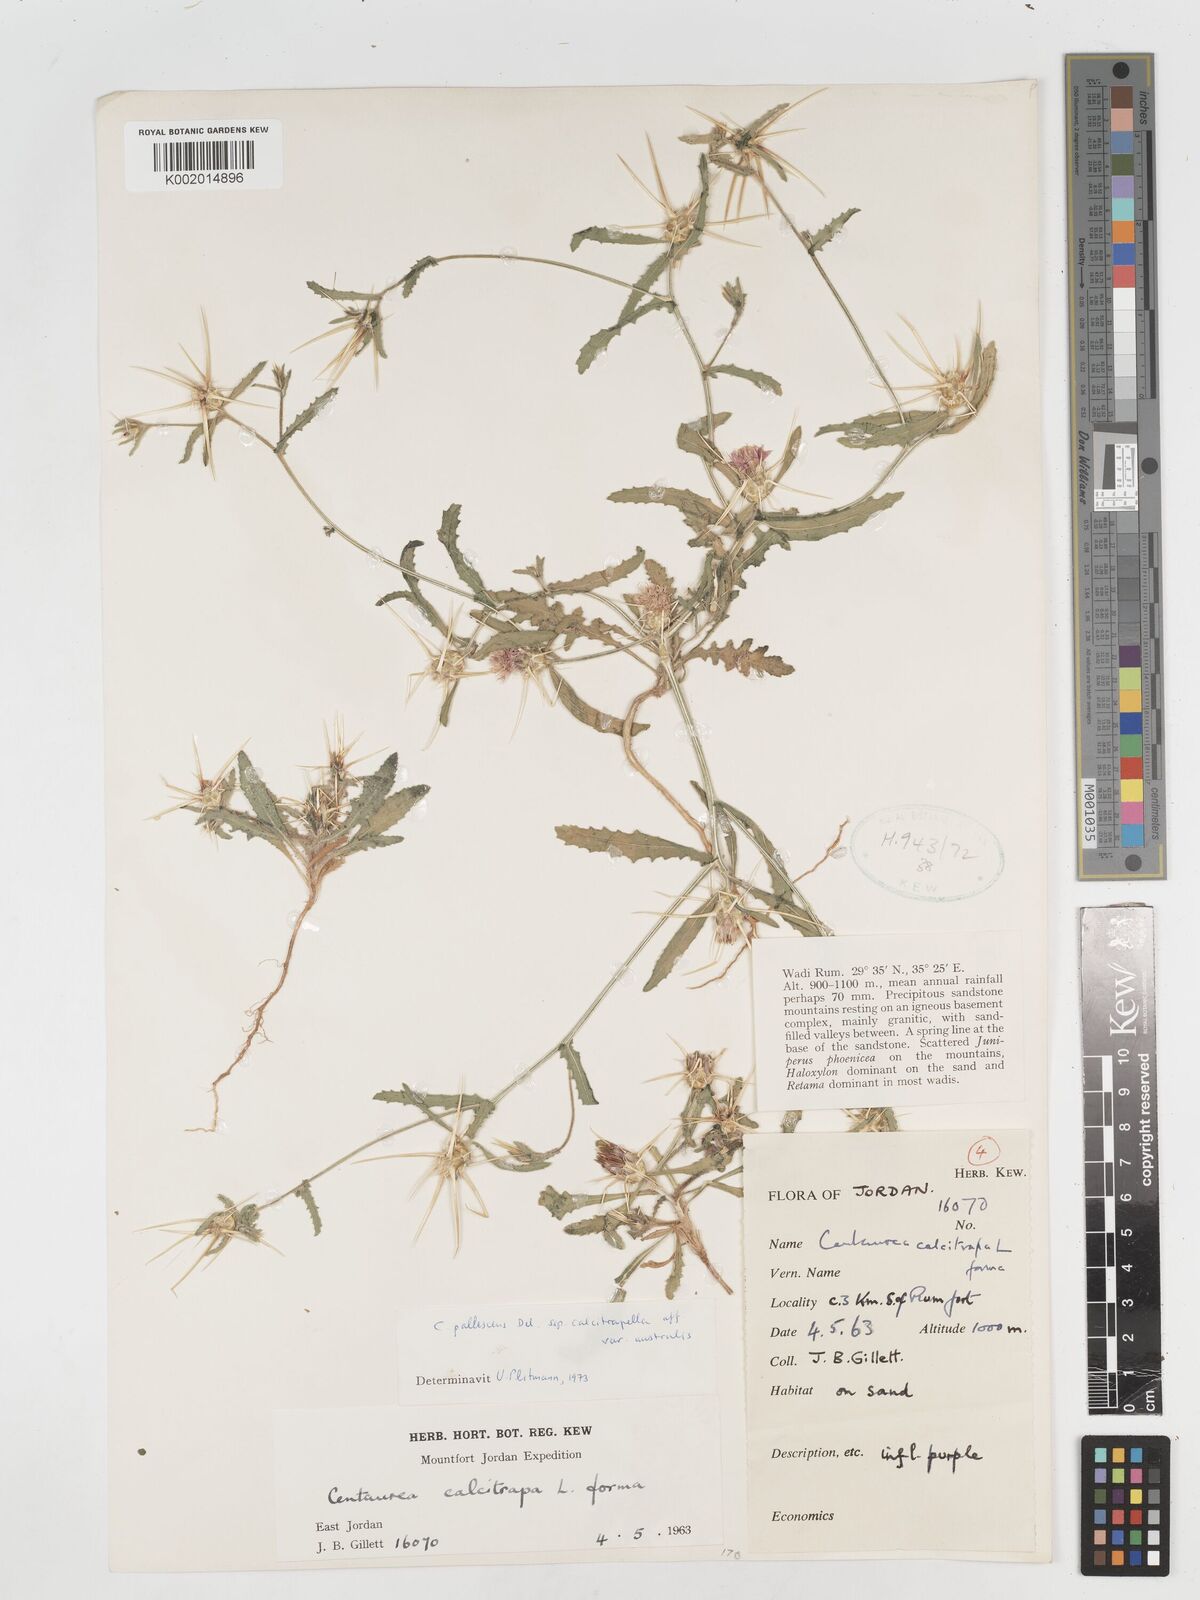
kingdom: Plantae
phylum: Tracheophyta
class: Magnoliopsida
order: Asterales
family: Asteraceae
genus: Centaurea
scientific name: Centaurea pallescens
